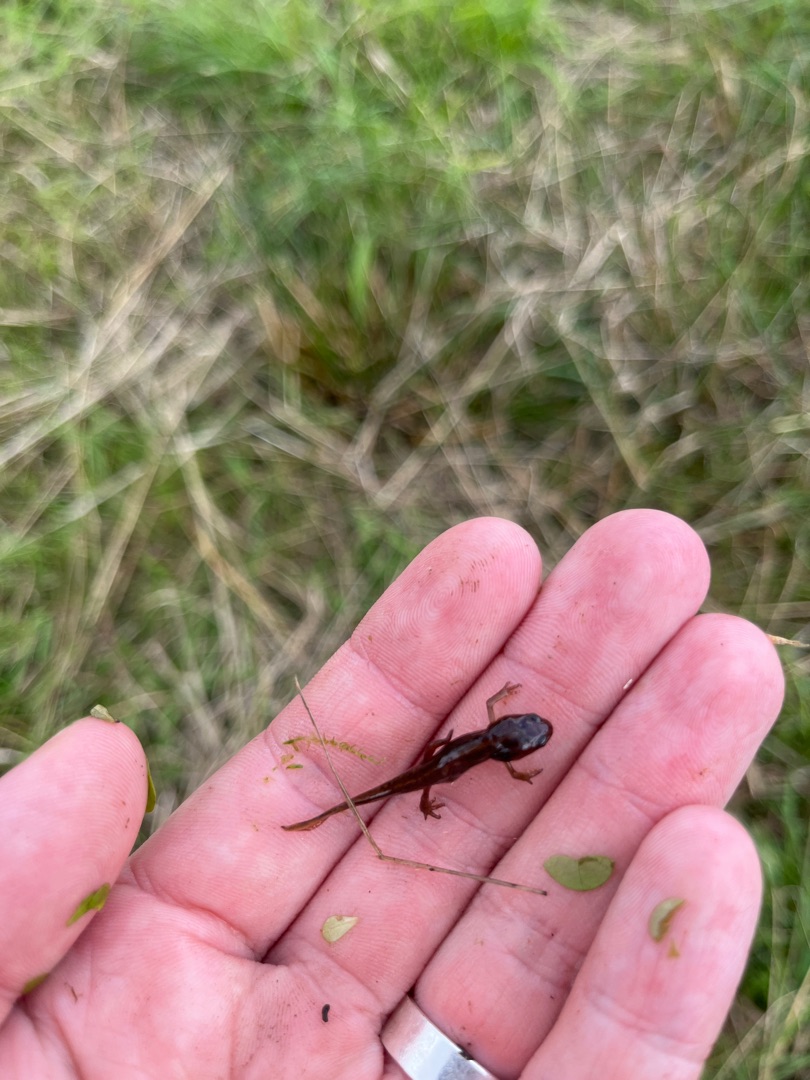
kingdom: Animalia
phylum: Chordata
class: Amphibia
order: Caudata
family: Salamandridae
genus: Lissotriton
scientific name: Lissotriton vulgaris
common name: Lille vandsalamander
